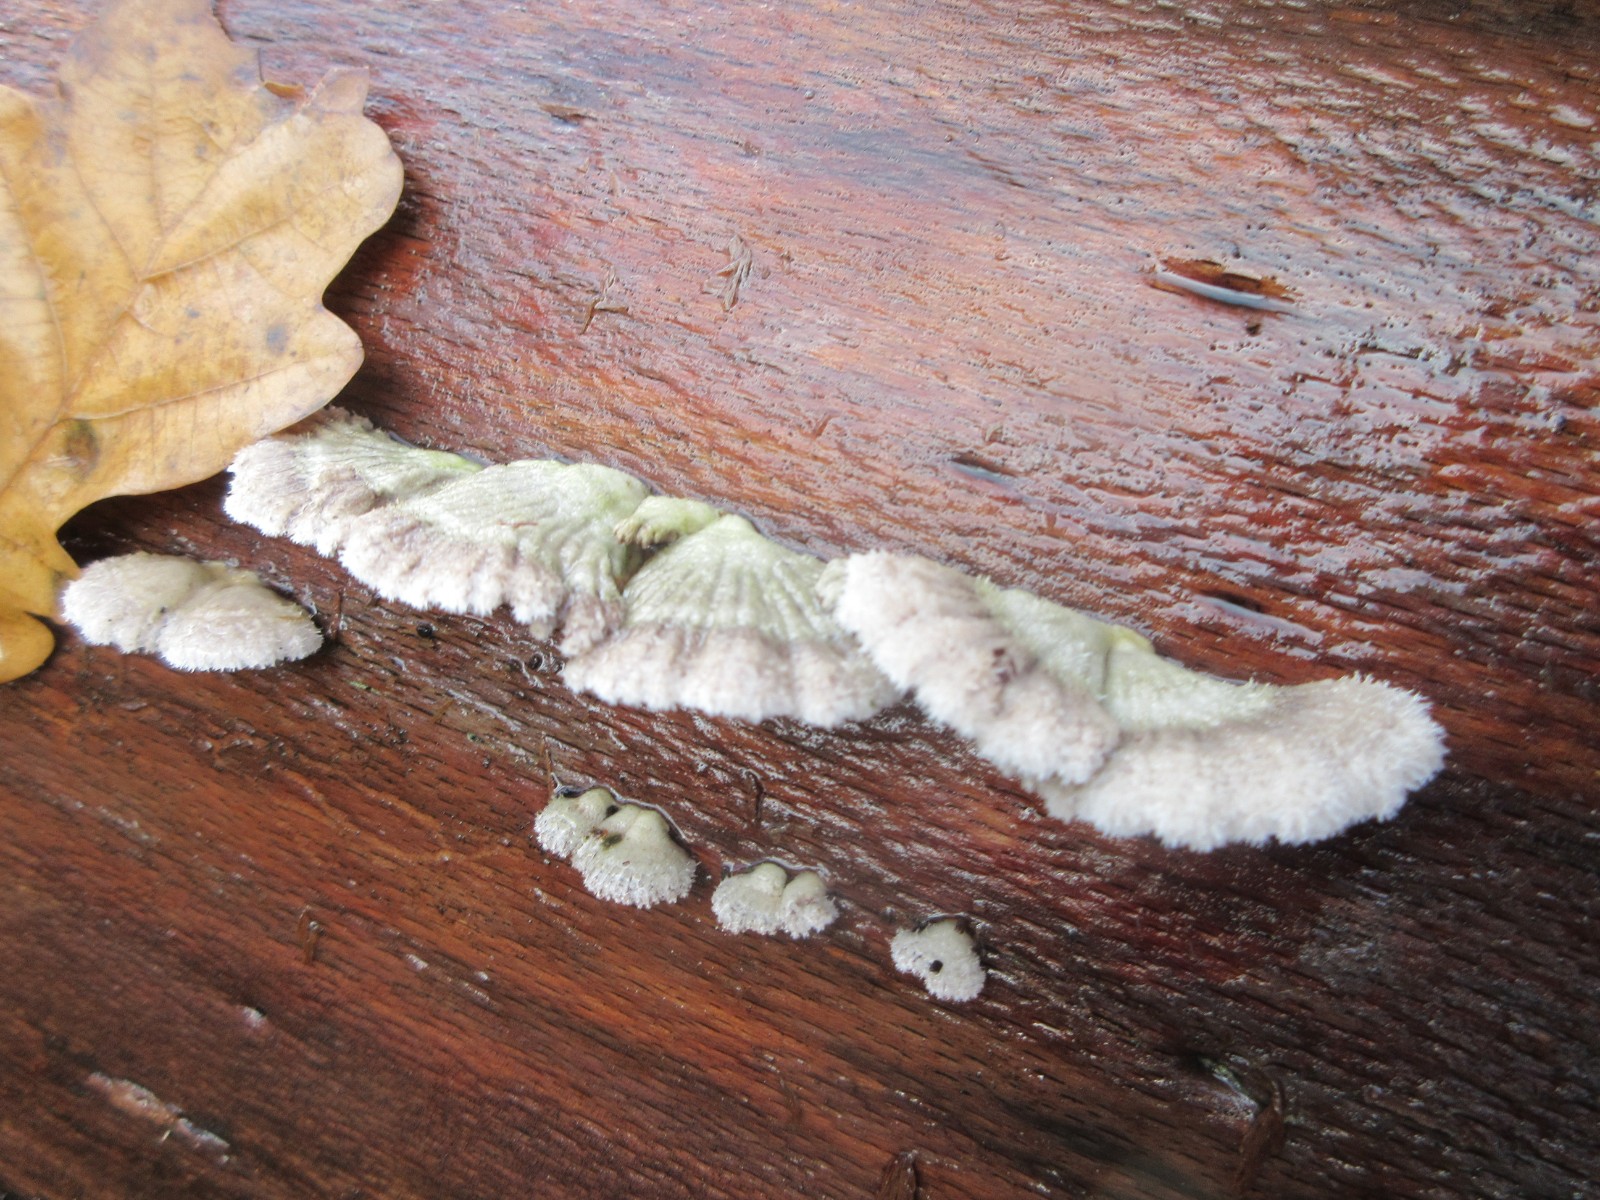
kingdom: Fungi
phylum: Basidiomycota
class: Agaricomycetes
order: Agaricales
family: Schizophyllaceae
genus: Schizophyllum
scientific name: Schizophyllum commune
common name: kløvblad
